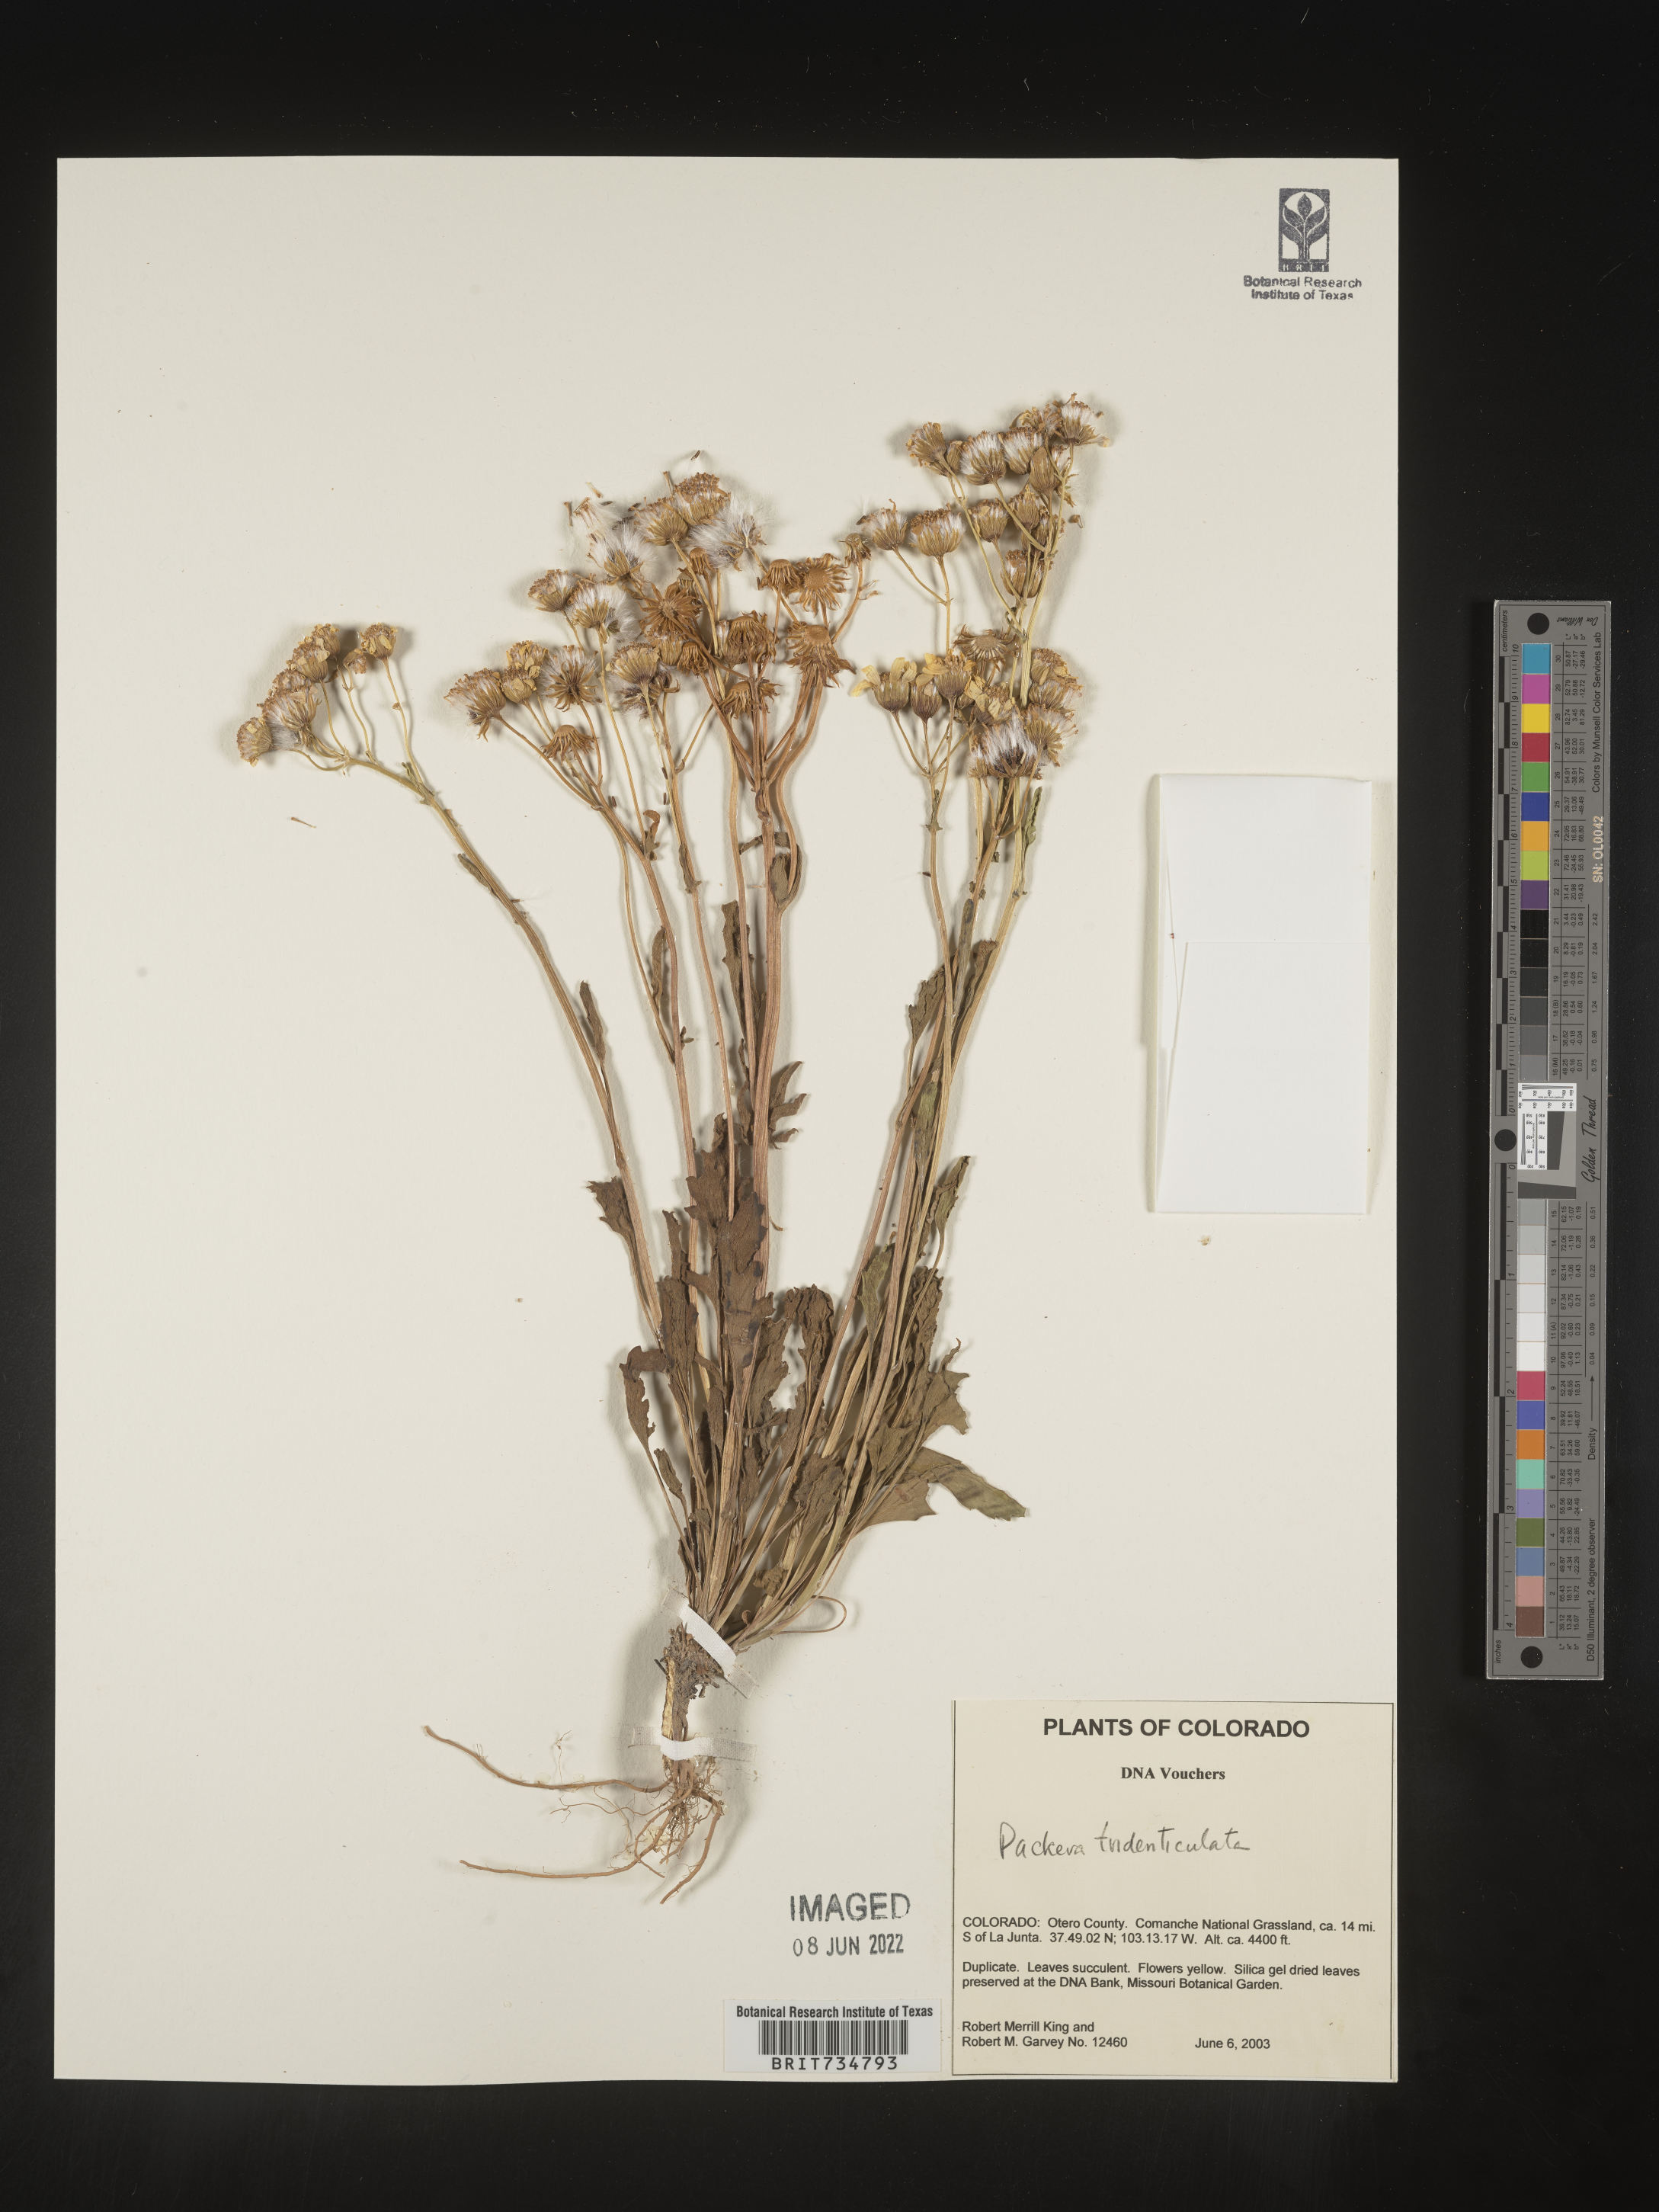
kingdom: Plantae
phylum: Tracheophyta
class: Magnoliopsida
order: Asterales
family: Asteraceae
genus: Packera
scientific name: Packera thurberi
